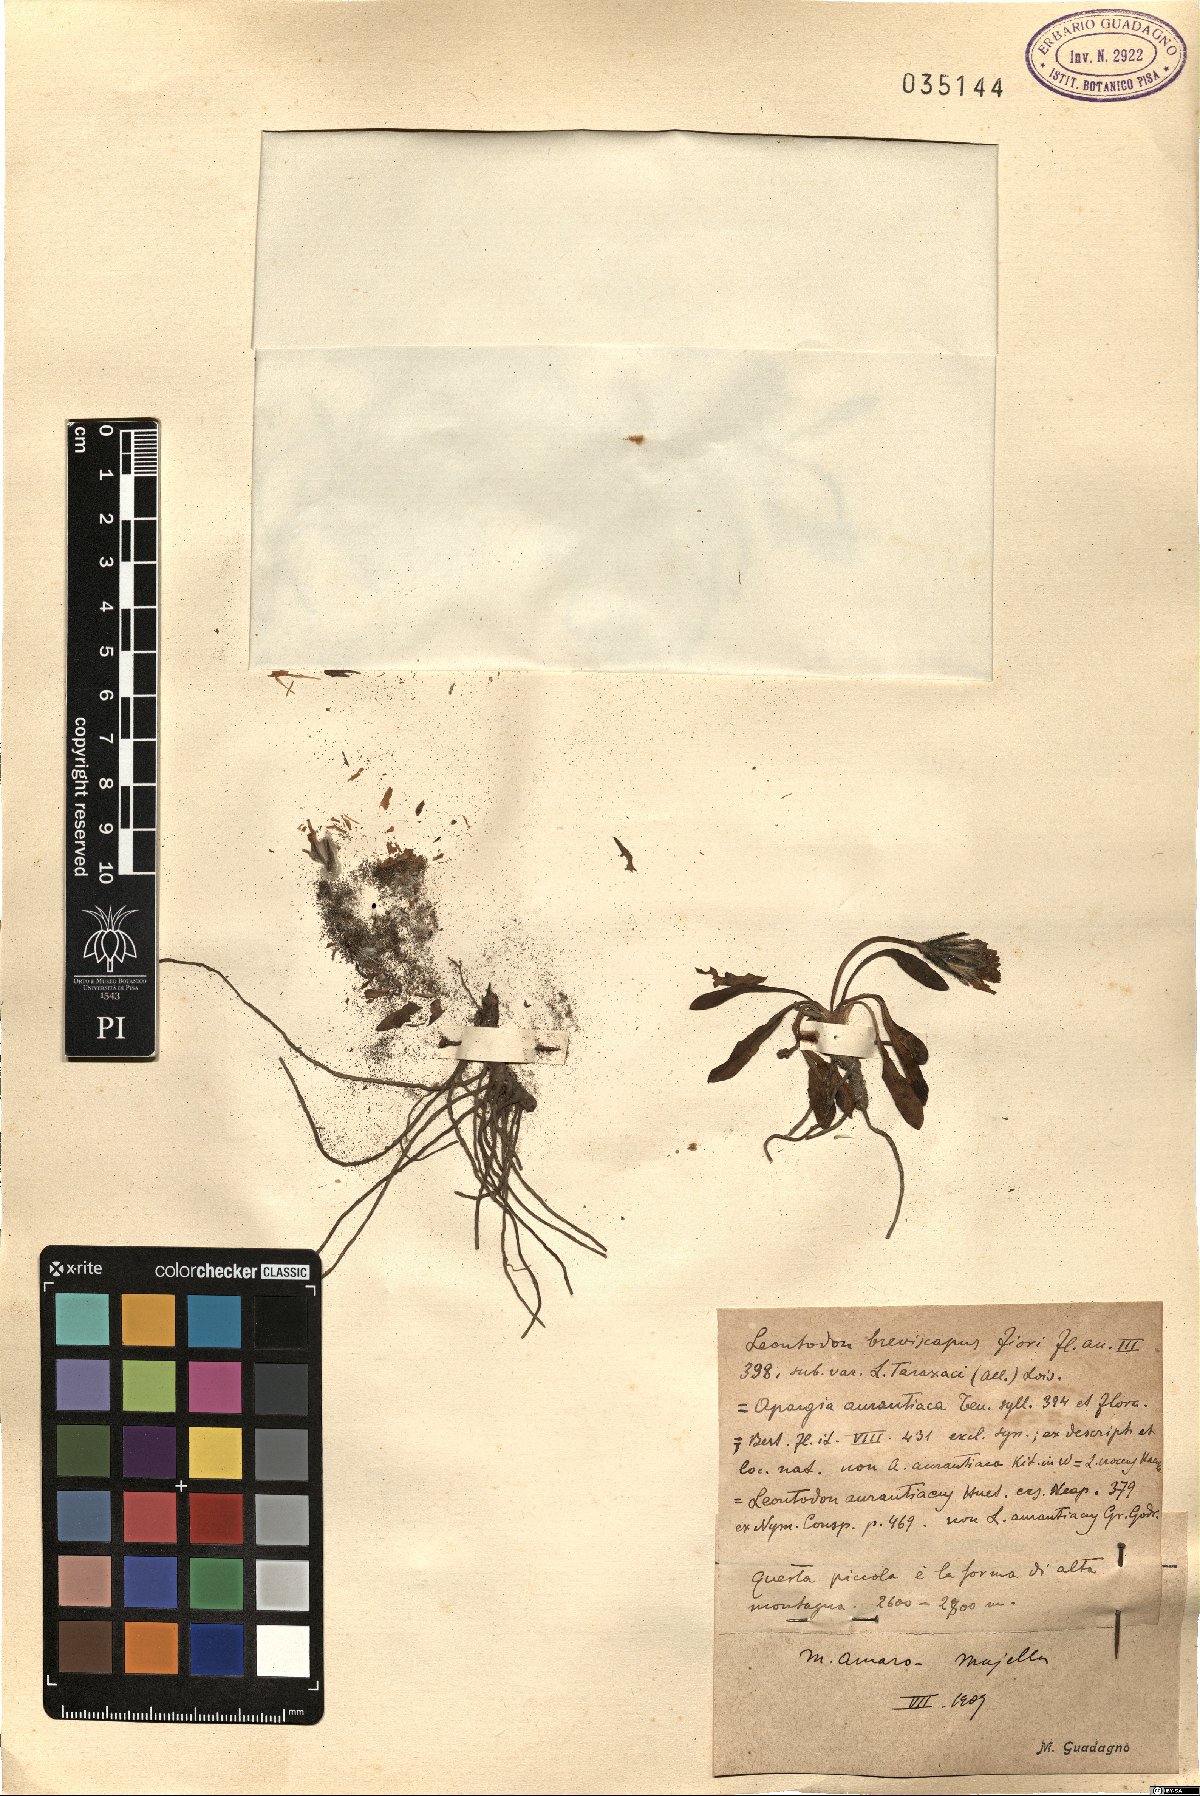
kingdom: Plantae
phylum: Tracheophyta
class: Magnoliopsida
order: Asterales
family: Asteraceae
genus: Leontodon
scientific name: Leontodon
